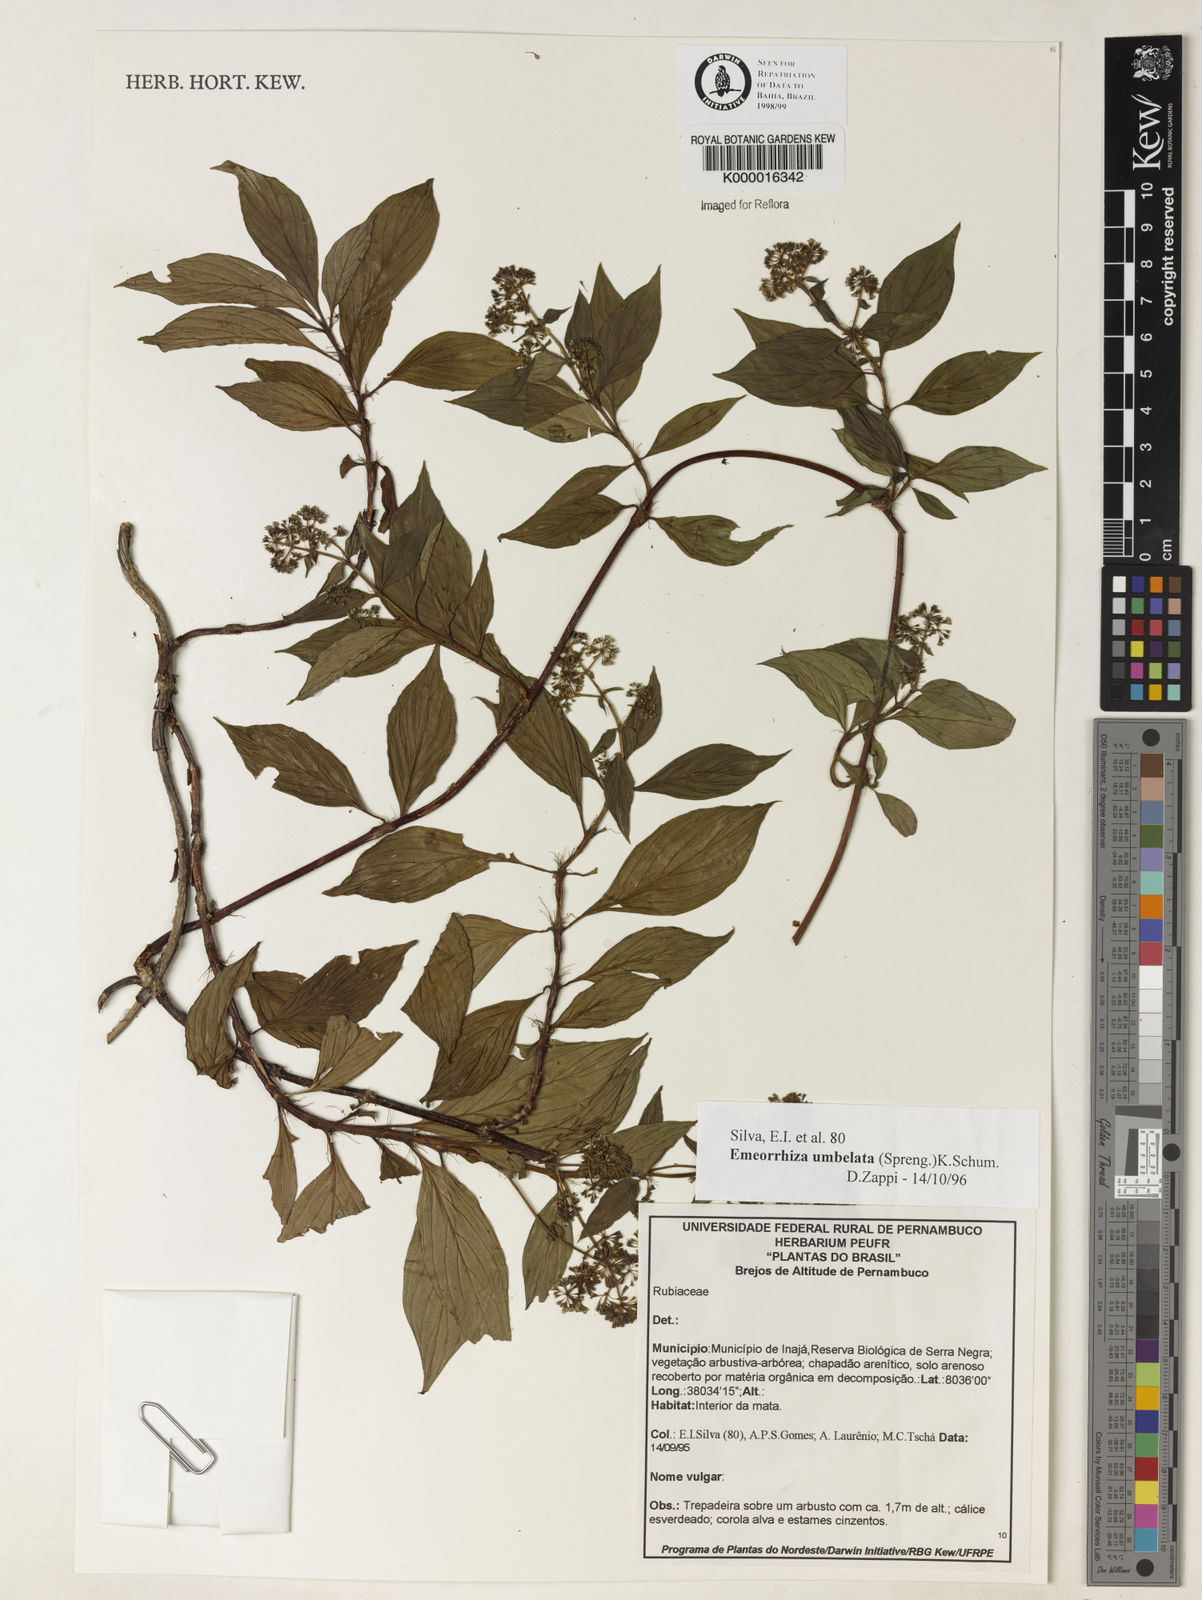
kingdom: Plantae
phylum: Tracheophyta
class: Magnoliopsida
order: Gentianales
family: Rubiaceae
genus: Emmeorhiza
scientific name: Emmeorhiza umbellata
